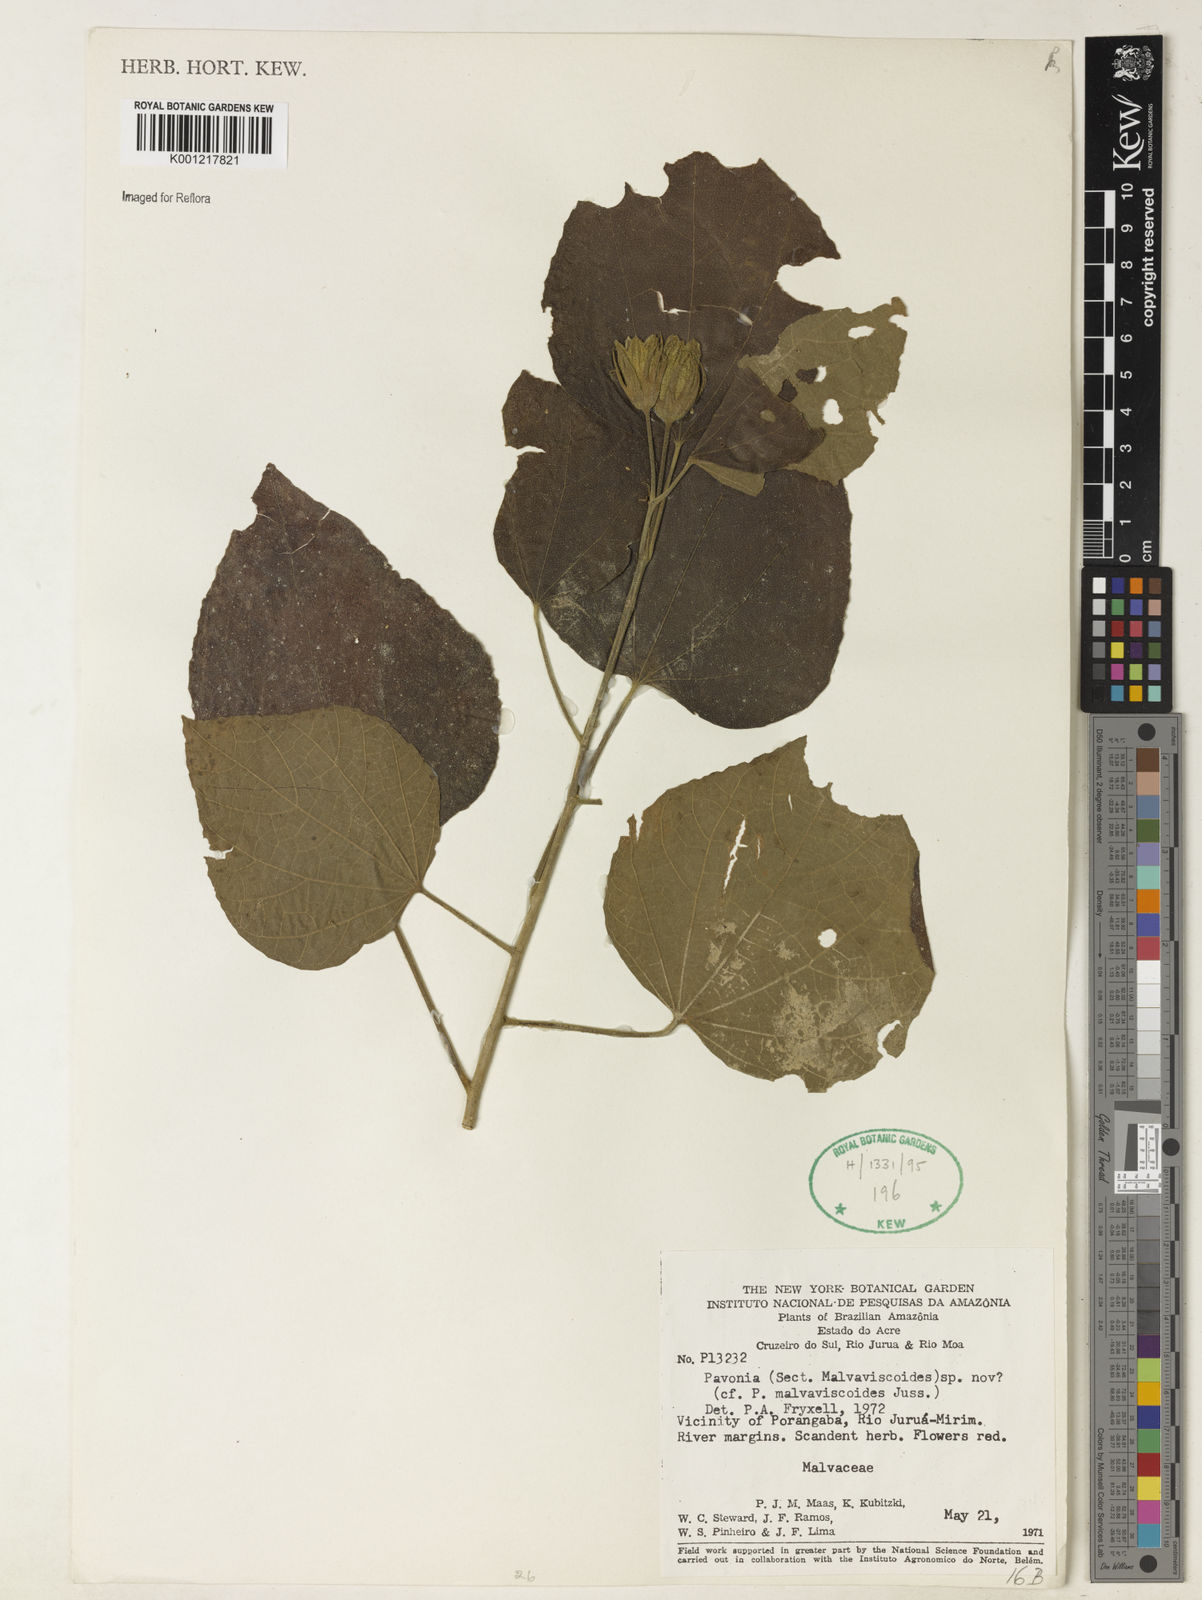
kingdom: Plantae
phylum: Tracheophyta
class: Magnoliopsida
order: Malvales
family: Malvaceae
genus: Pavonia
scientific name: Pavonia
